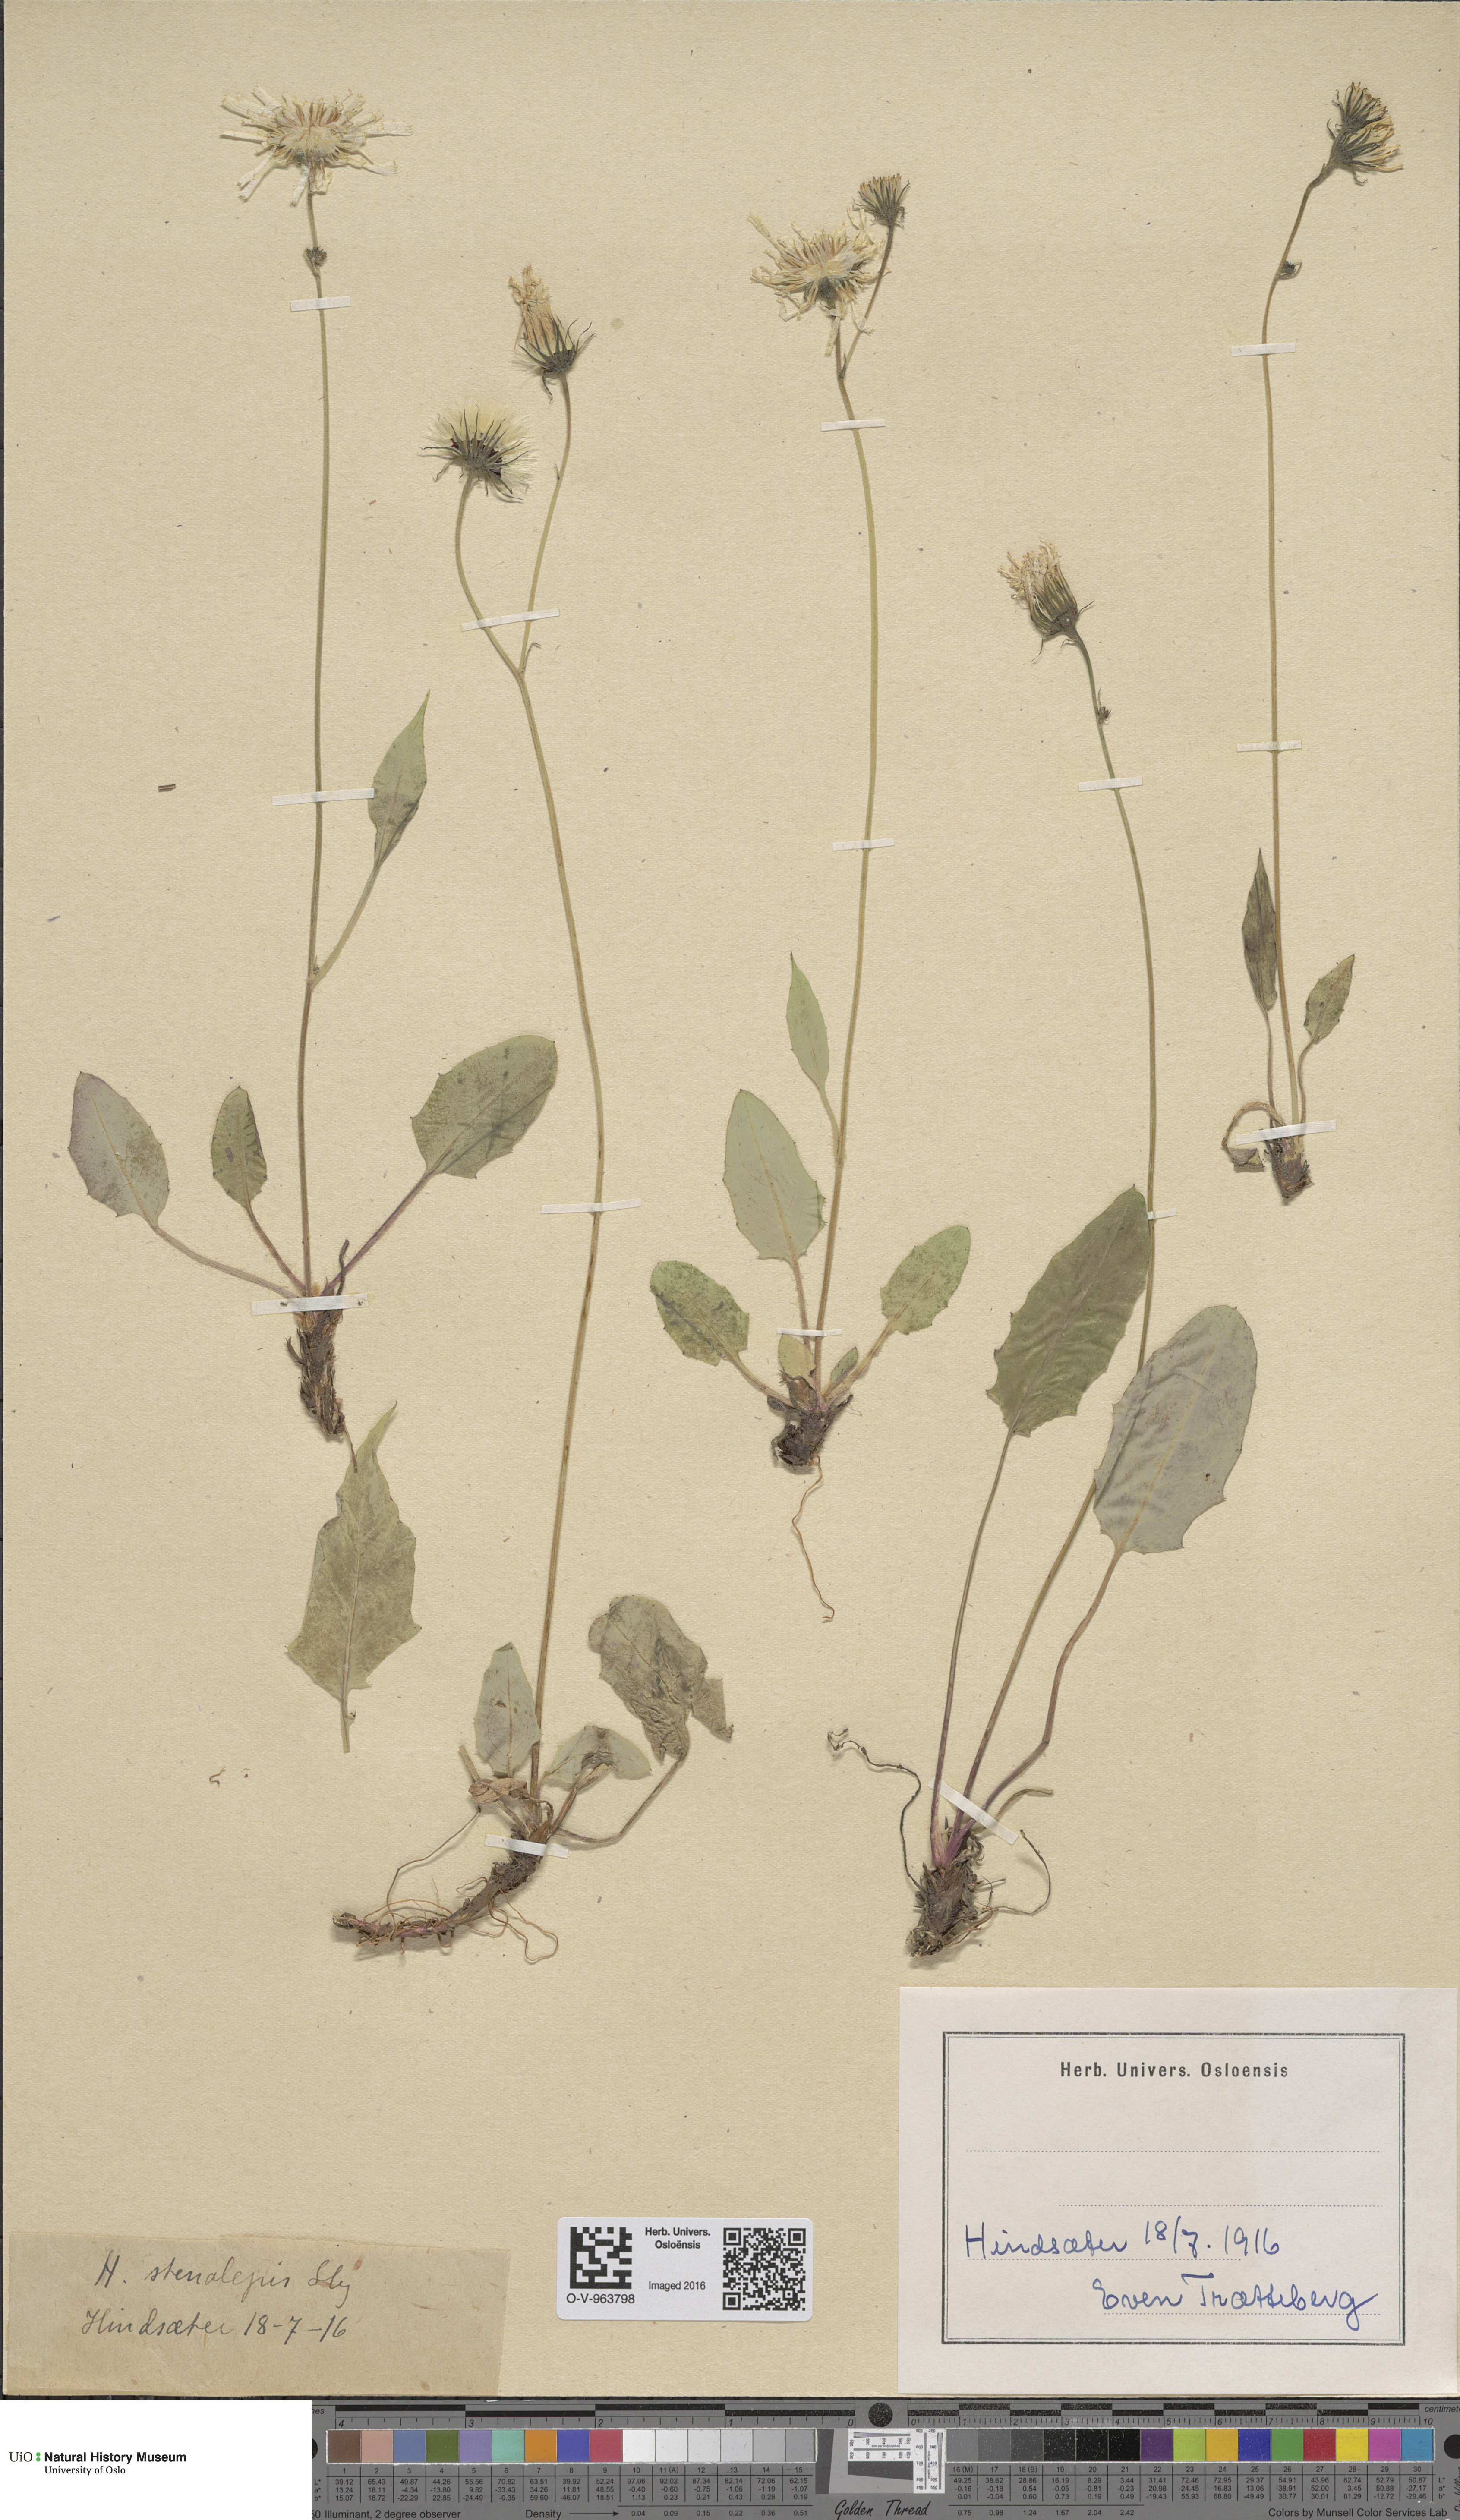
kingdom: Plantae
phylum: Tracheophyta
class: Magnoliopsida
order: Asterales
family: Asteraceae
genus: Hieracium
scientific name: Hieracium bifidum
